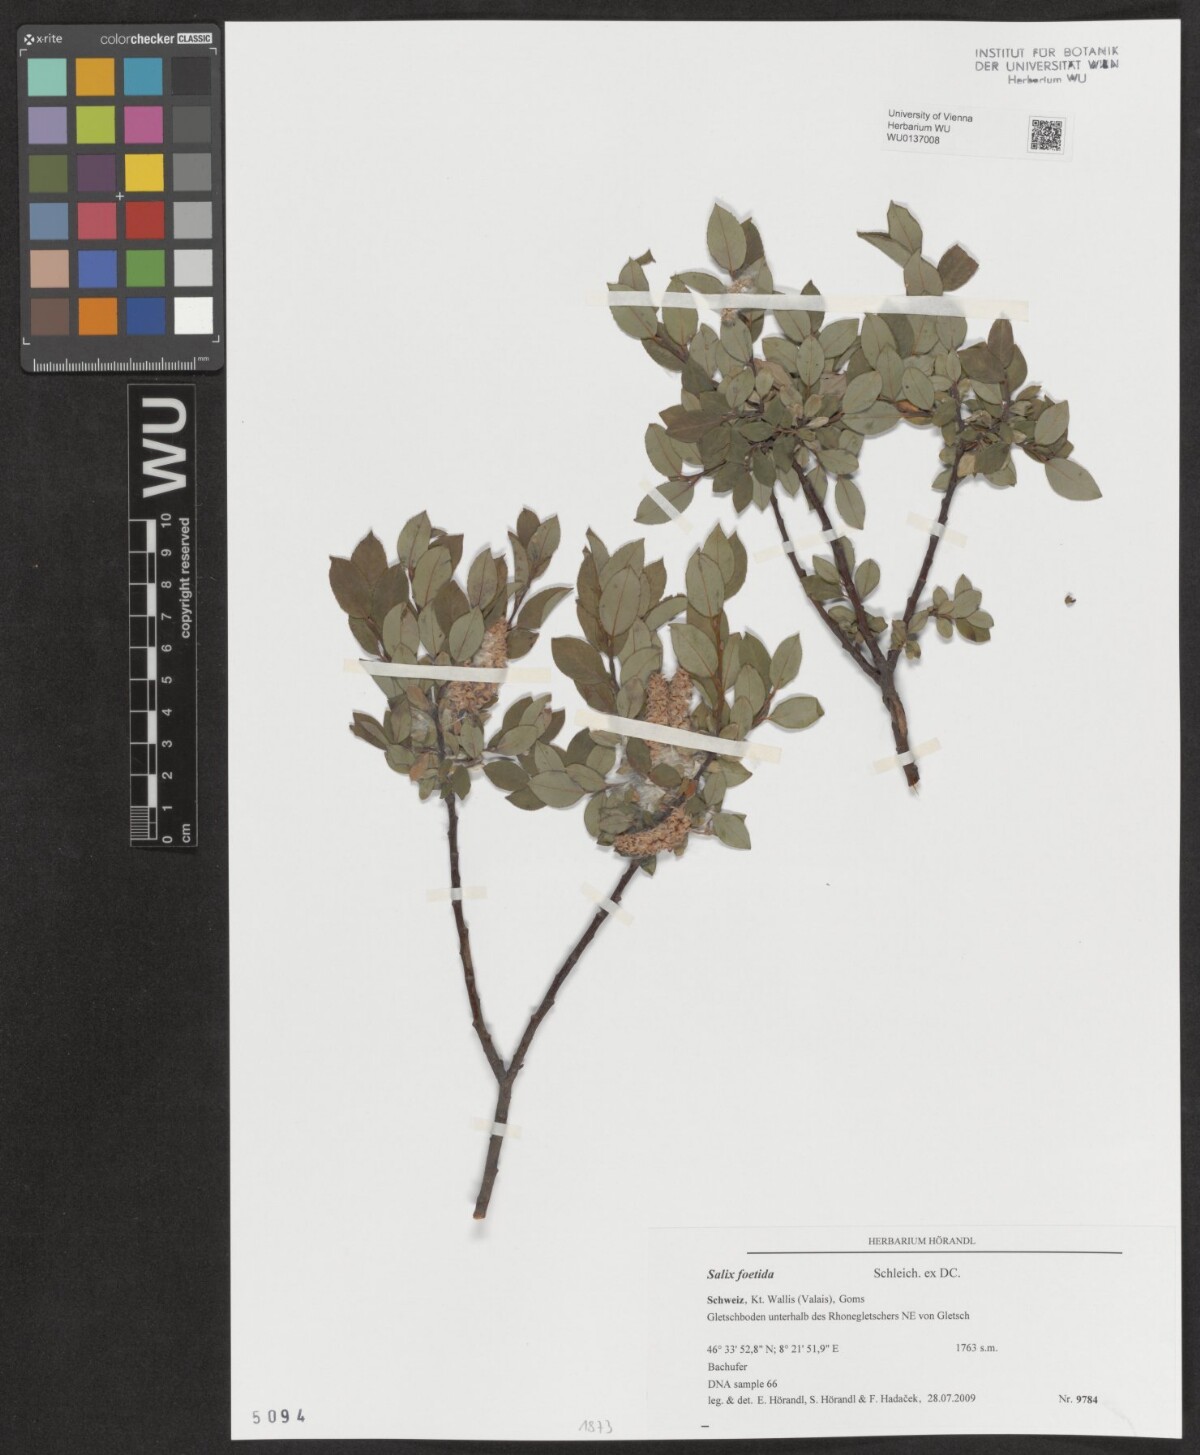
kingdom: Plantae
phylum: Tracheophyta
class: Magnoliopsida
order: Malpighiales
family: Salicaceae
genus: Salix
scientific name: Salix foetida
